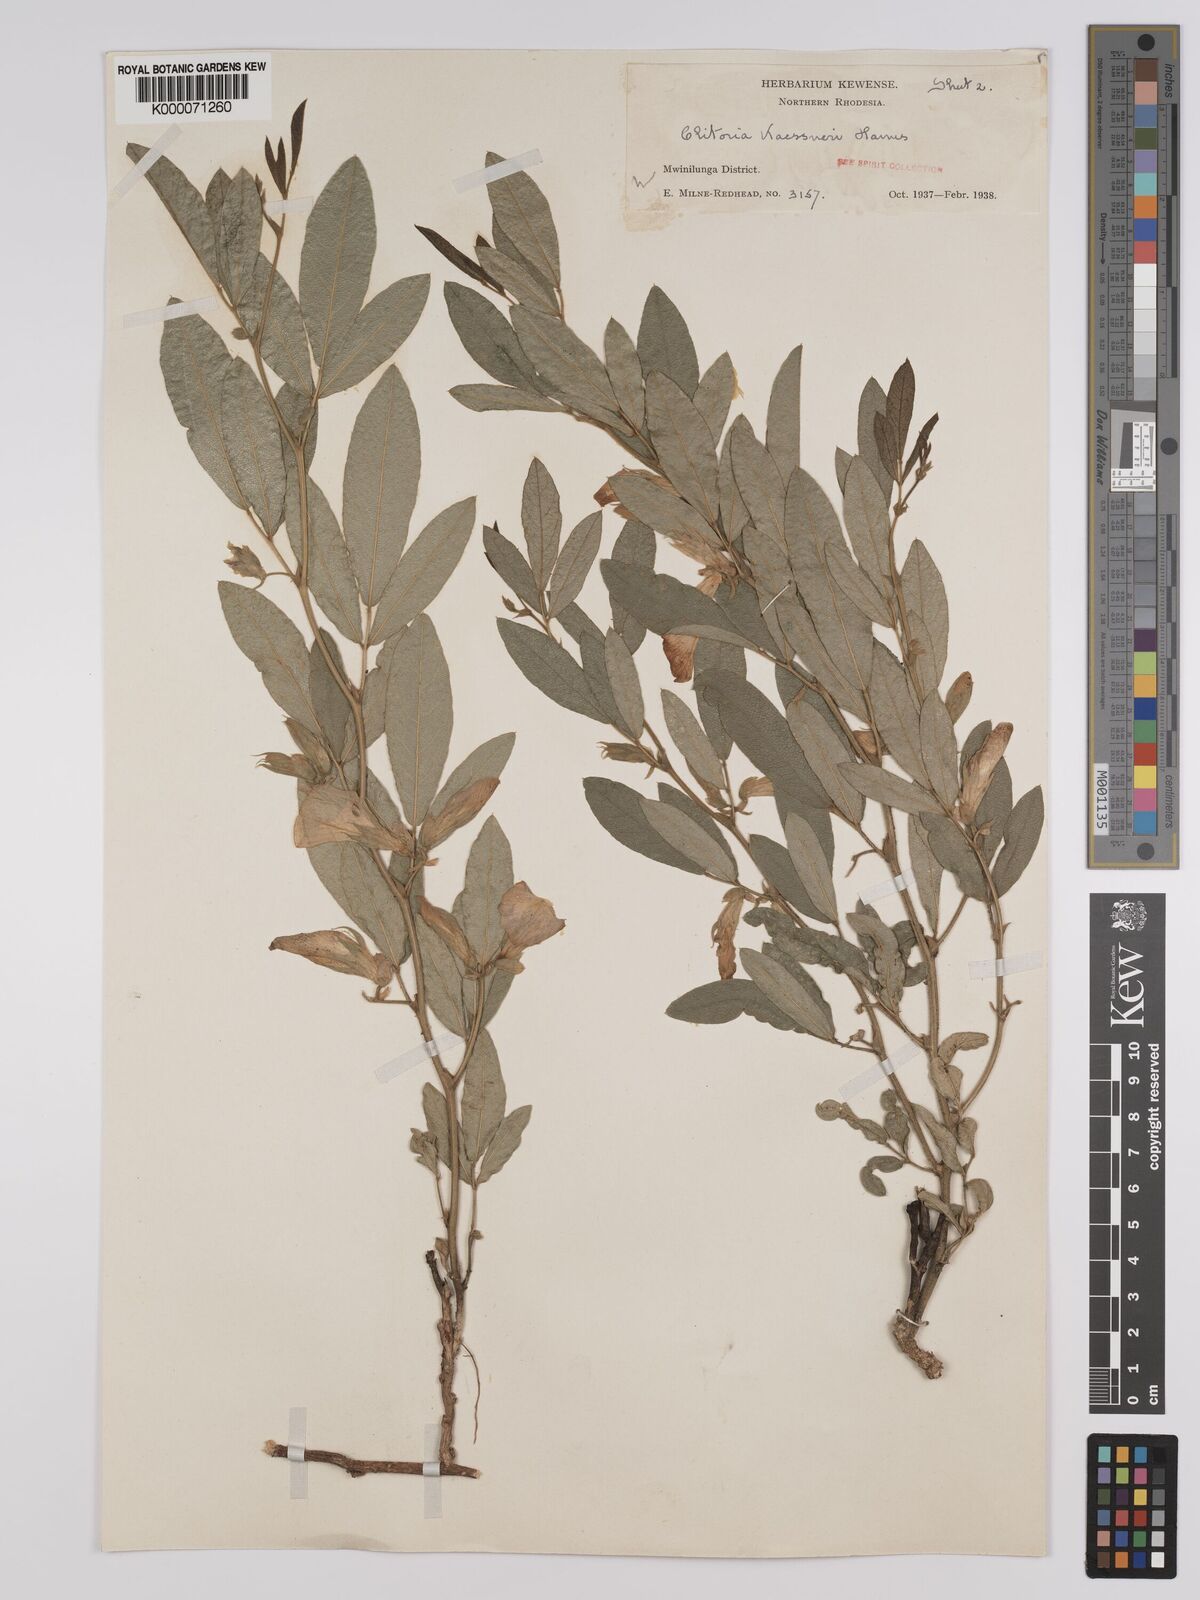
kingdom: Plantae
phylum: Tracheophyta
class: Magnoliopsida
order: Fabales
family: Fabaceae
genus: Clitoria
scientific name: Clitoria kaessneri
